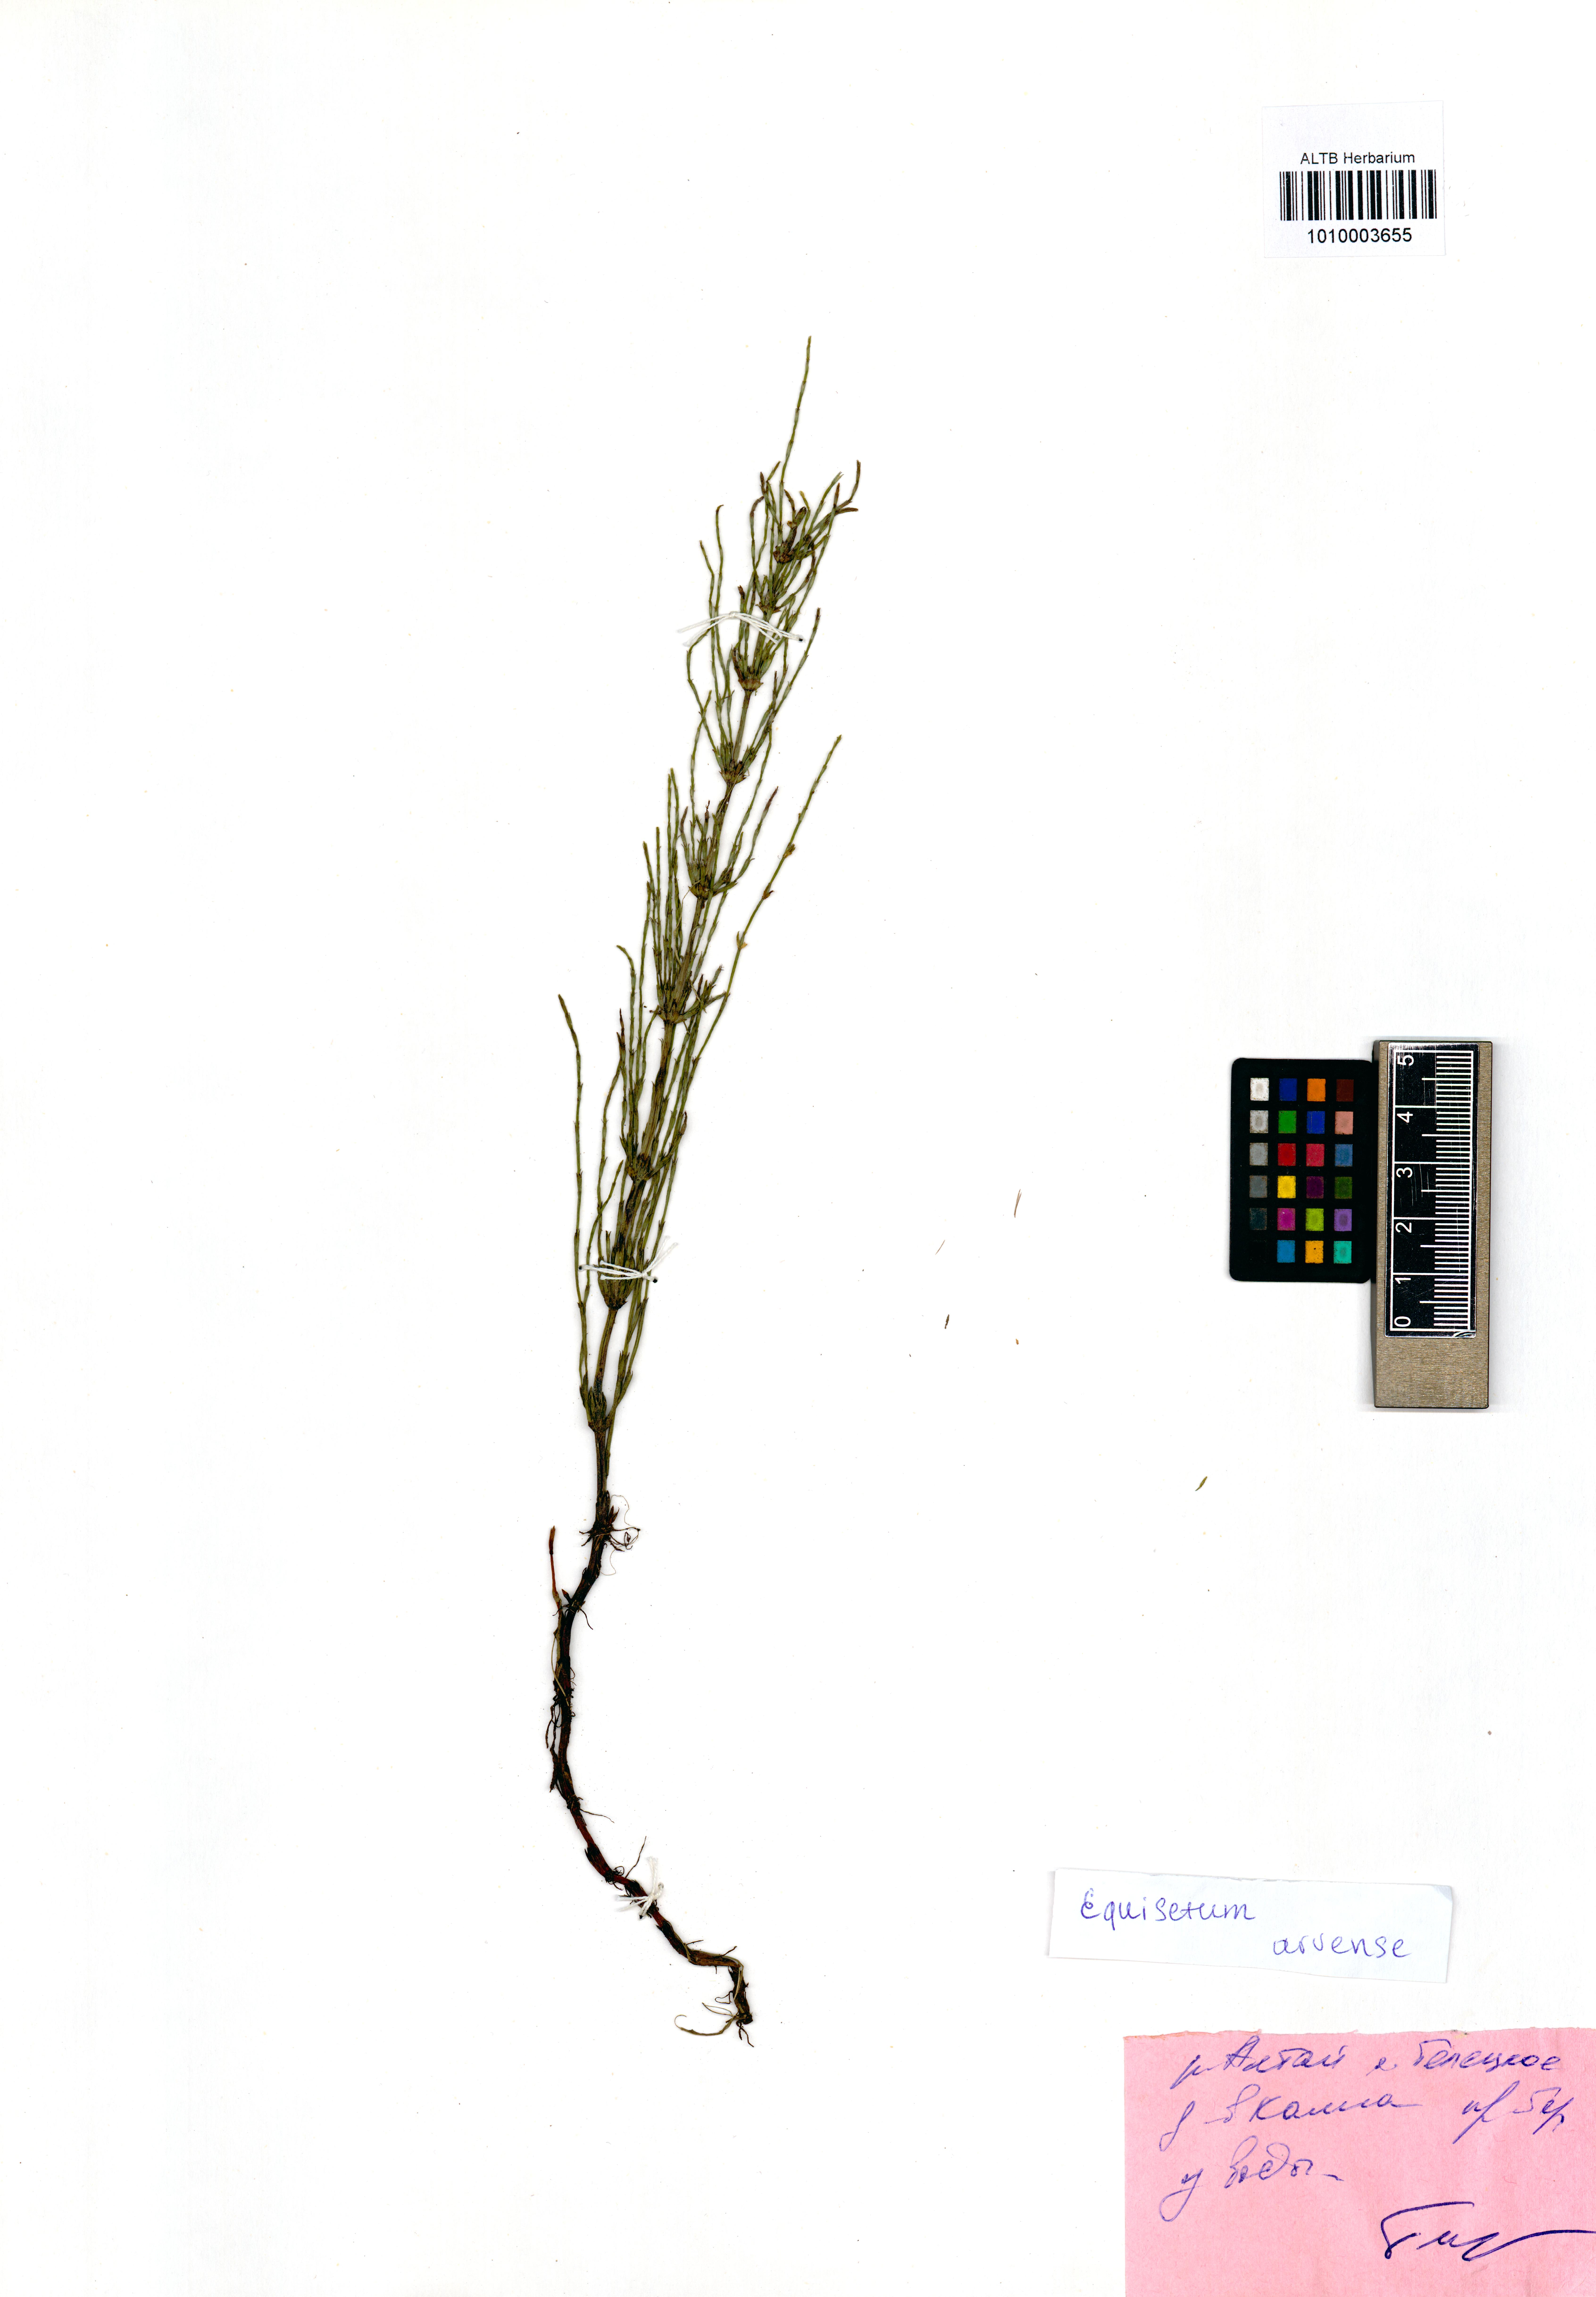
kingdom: Plantae
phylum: Tracheophyta
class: Polypodiopsida
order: Equisetales
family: Equisetaceae
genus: Equisetum
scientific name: Equisetum arvense
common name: Field horsetail
